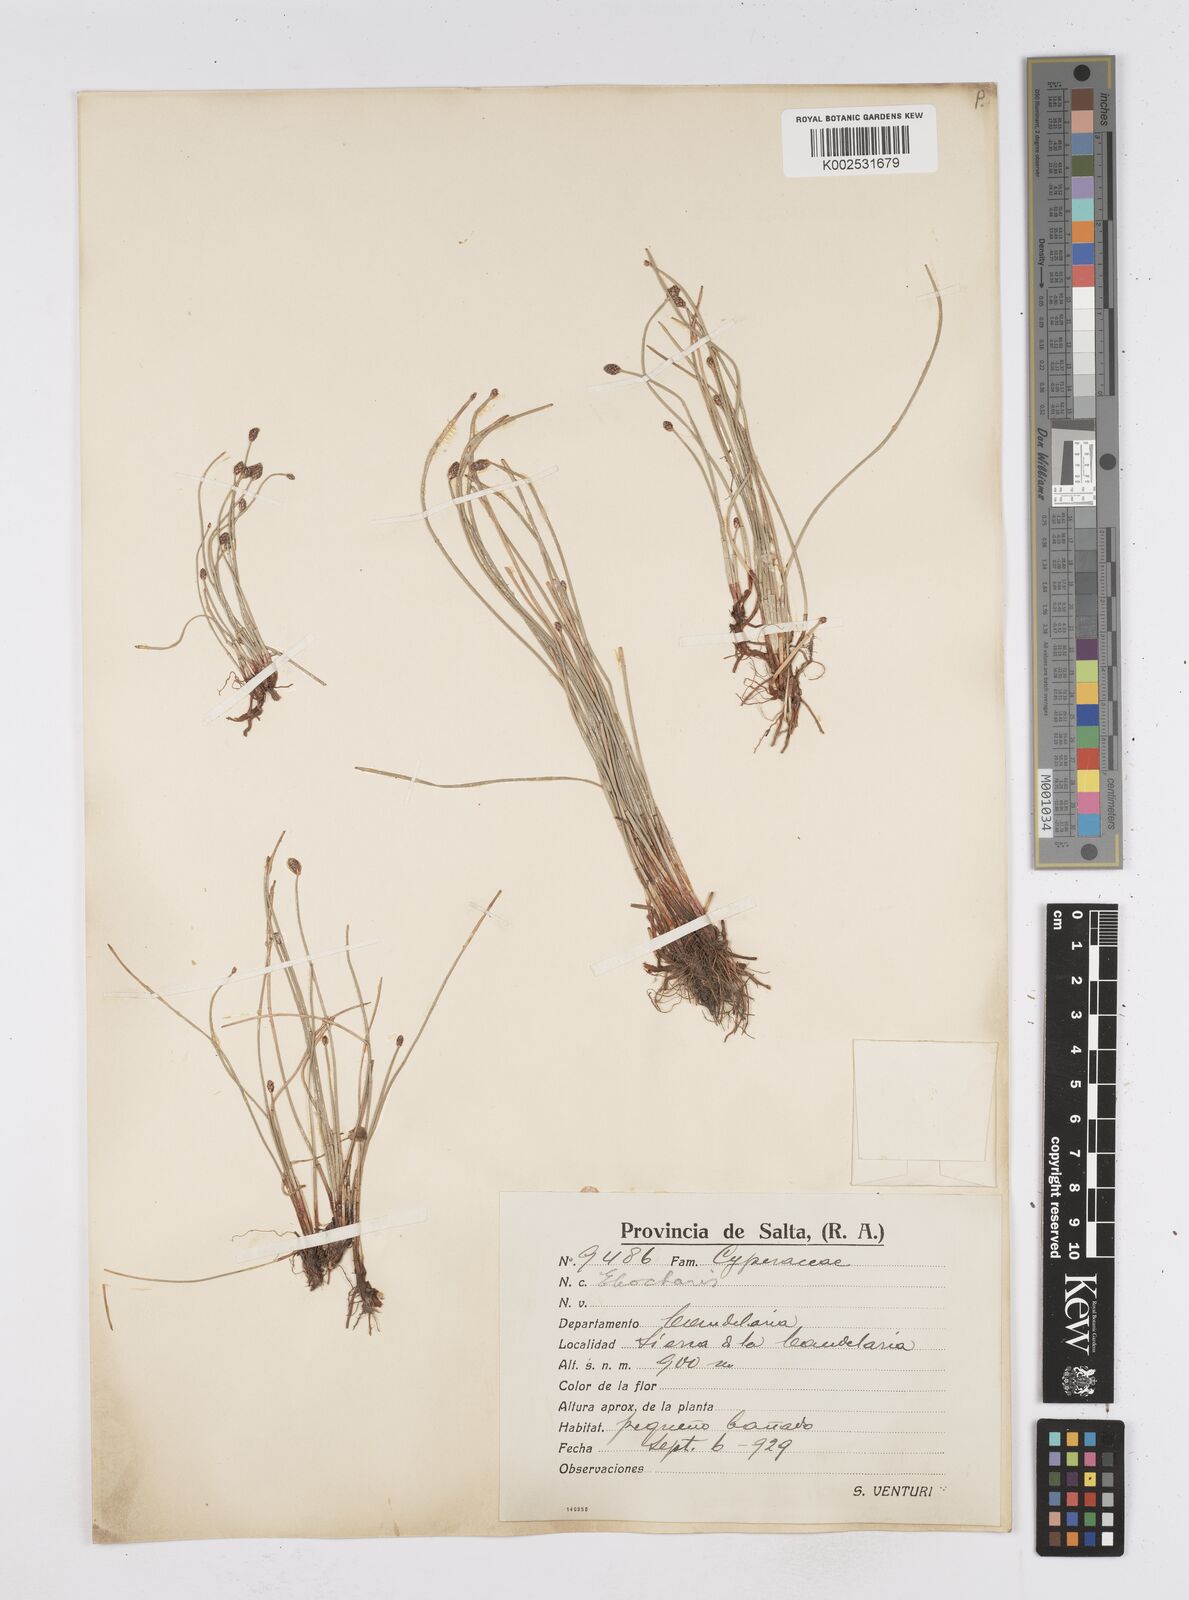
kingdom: Plantae
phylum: Tracheophyta
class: Liliopsida
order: Poales
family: Cyperaceae
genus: Eleocharis
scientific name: Eleocharis
